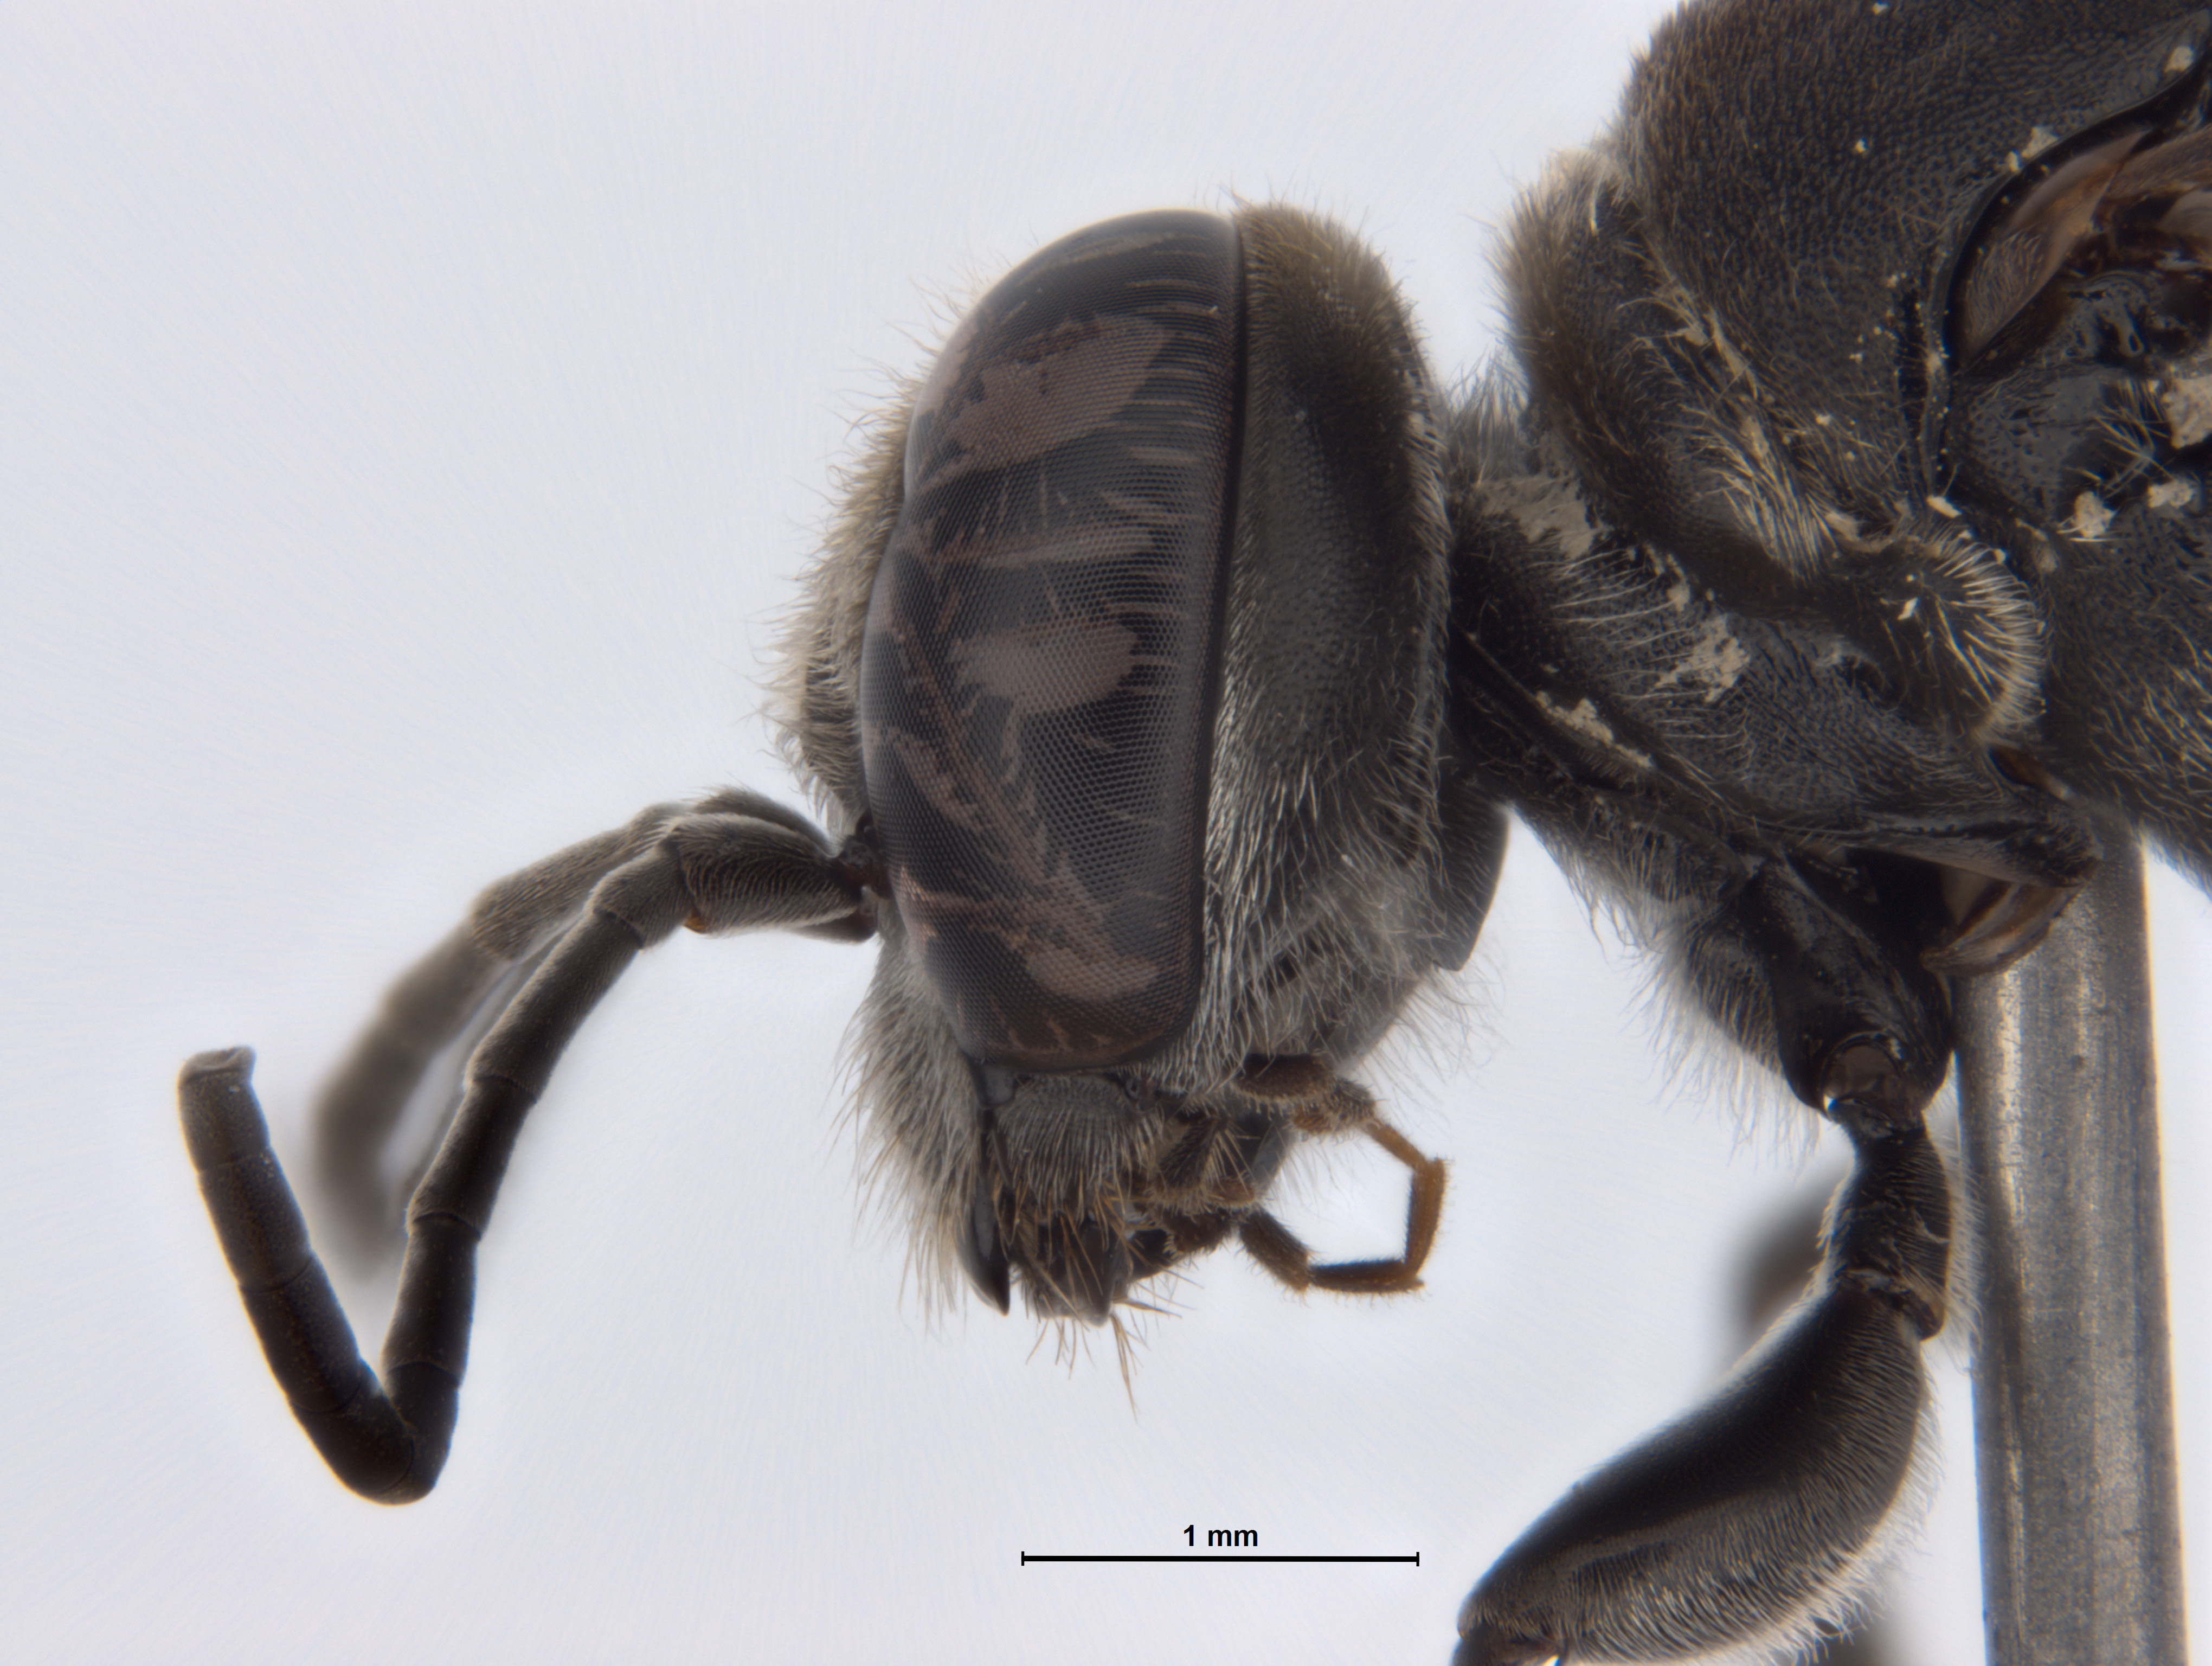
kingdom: Animalia
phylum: Arthropoda
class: Insecta
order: Hymenoptera
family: Crabronidae
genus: Pison
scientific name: Pison marginatum
